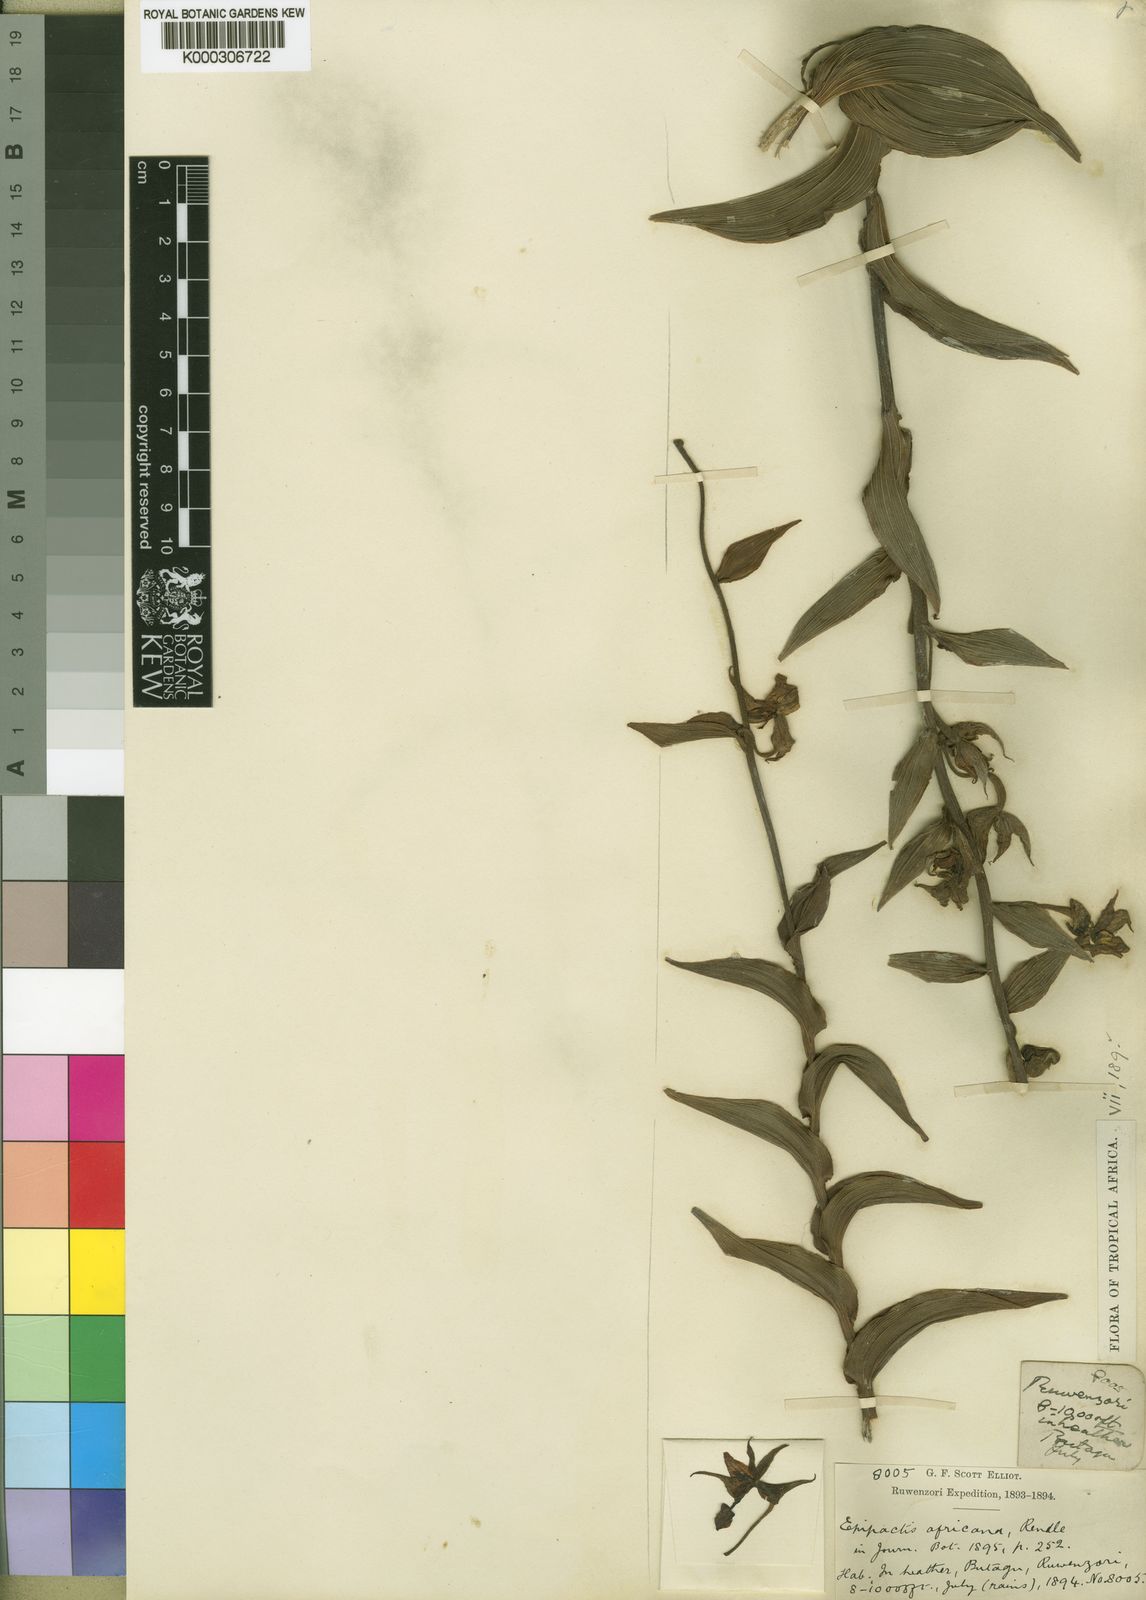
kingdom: Plantae
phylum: Tracheophyta
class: Liliopsida
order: Asparagales
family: Orchidaceae
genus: Epipactis
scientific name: Epipactis africana
